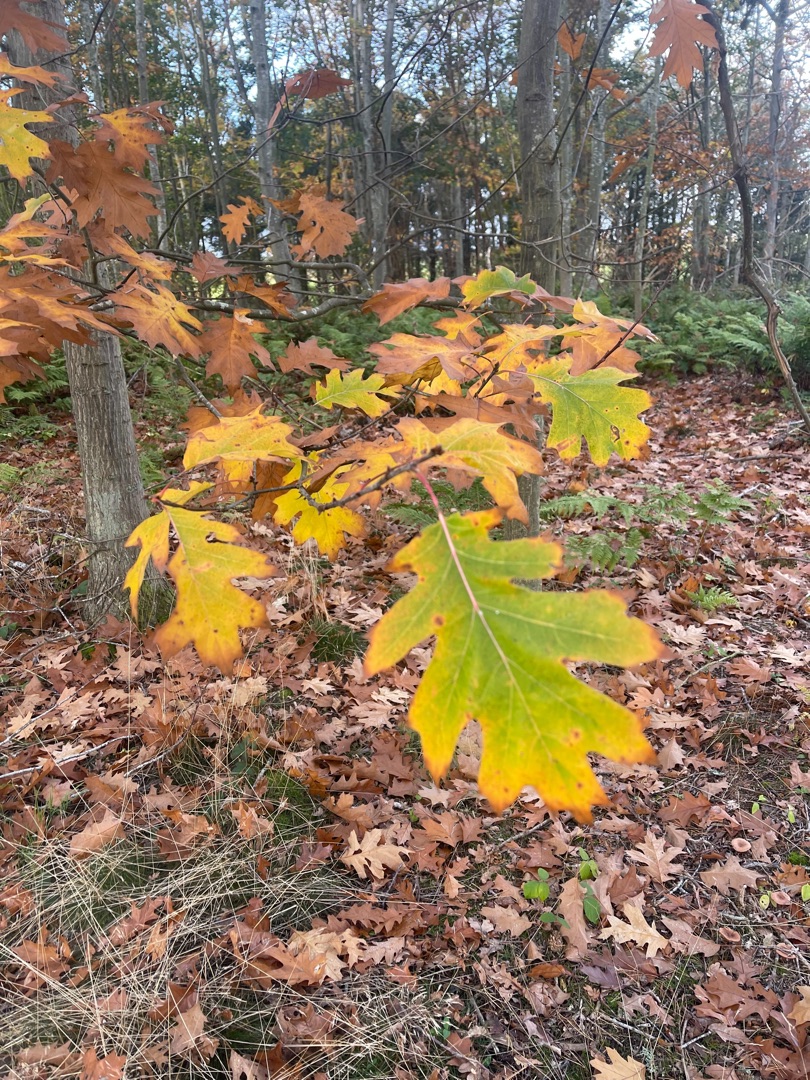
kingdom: Plantae
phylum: Tracheophyta
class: Magnoliopsida
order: Fagales
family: Fagaceae
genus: Quercus
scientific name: Quercus rubra
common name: Rød-eg
